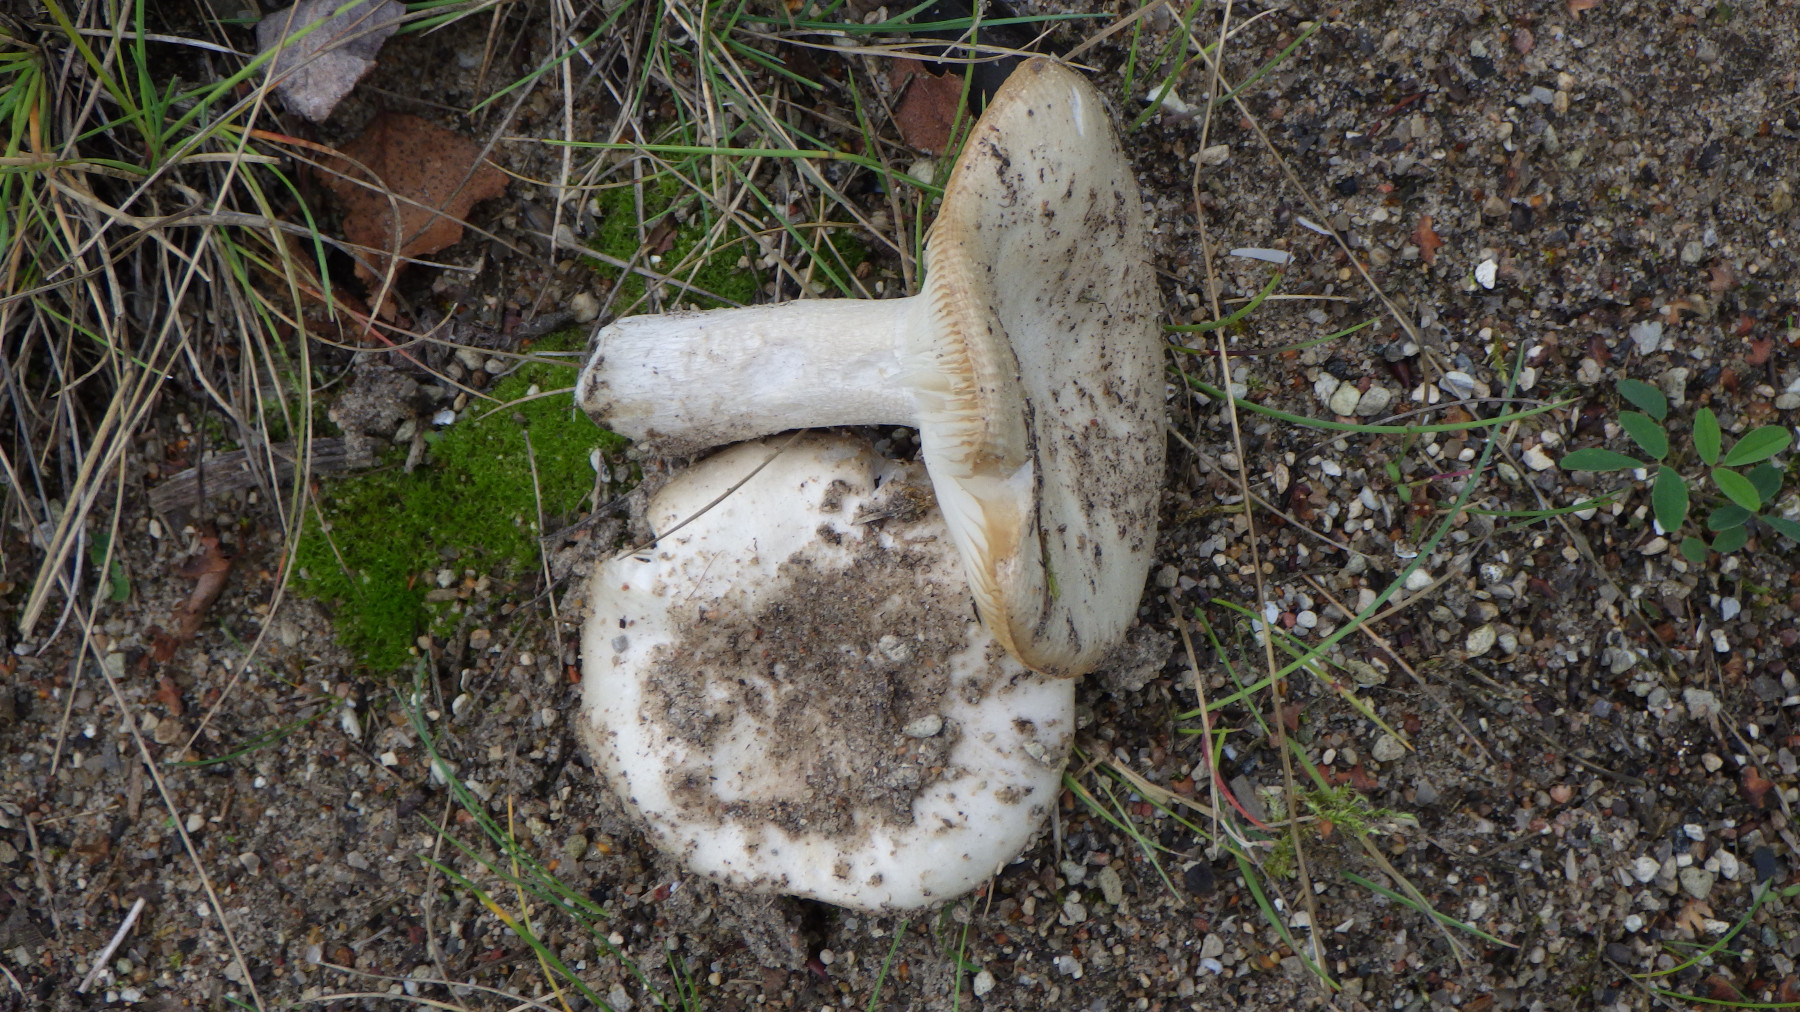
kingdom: Fungi
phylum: Basidiomycota
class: Agaricomycetes
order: Russulales
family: Russulaceae
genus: Russula
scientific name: Russula depallens
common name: falmende skørhat
